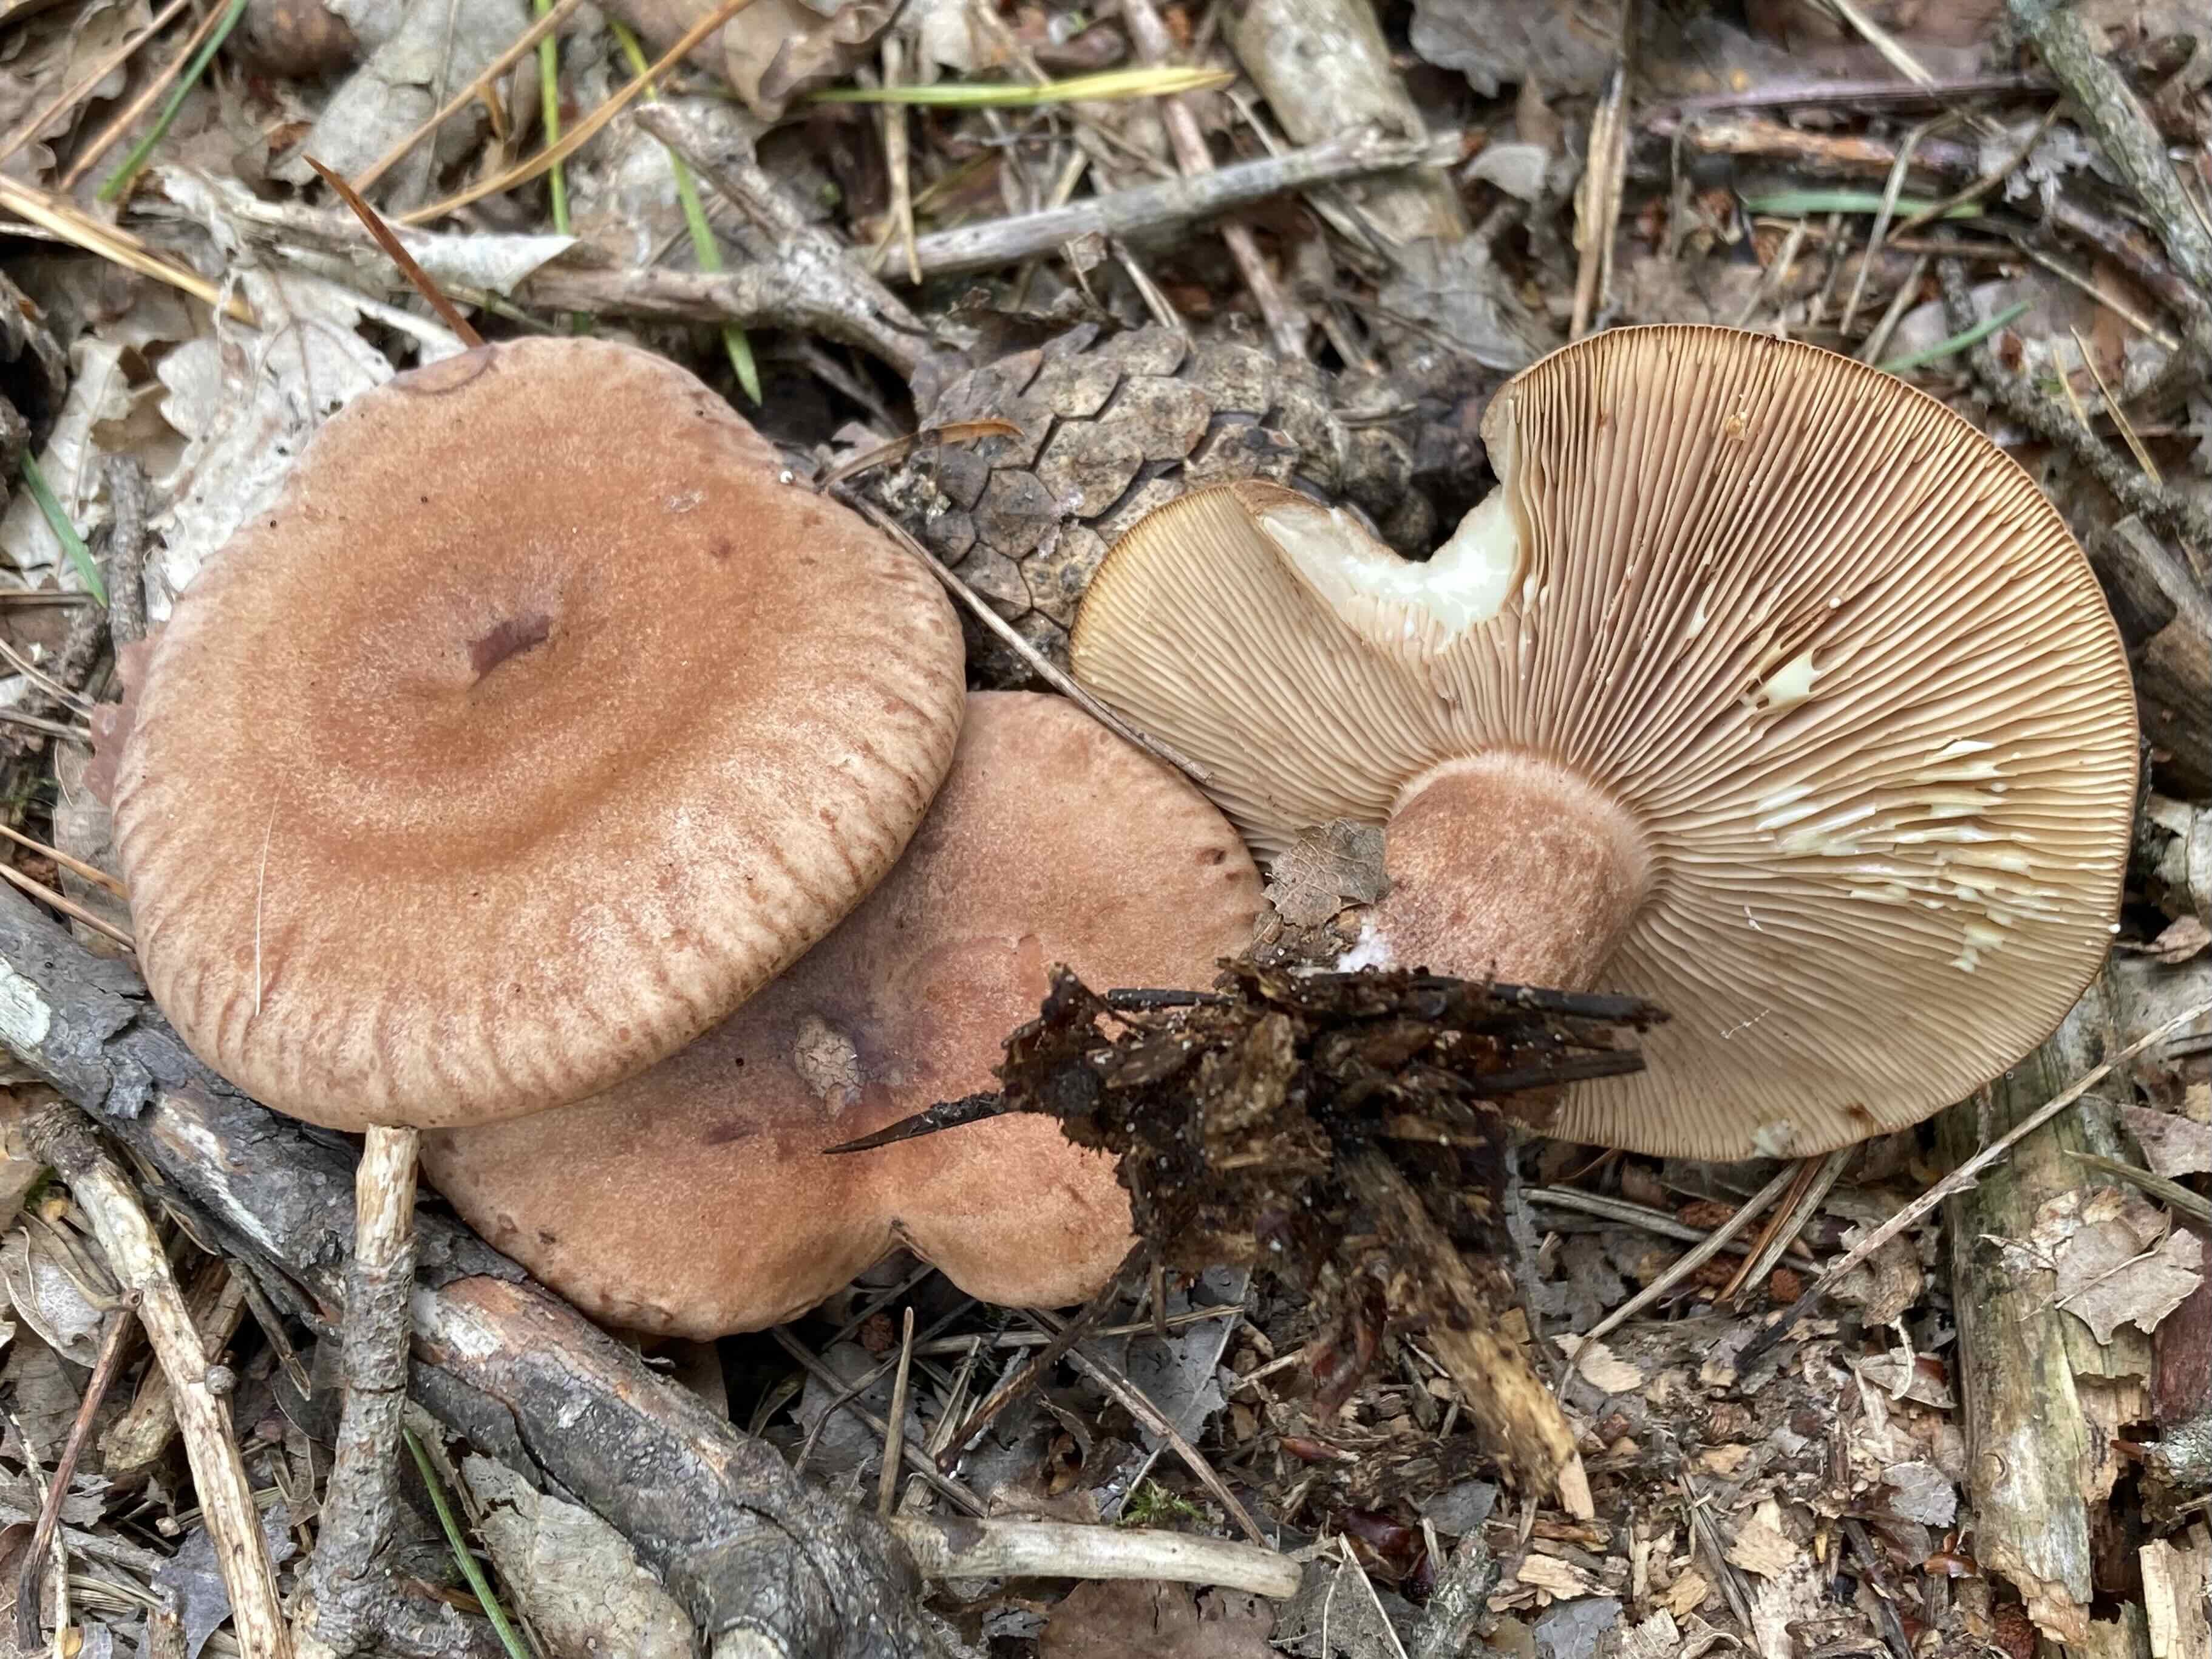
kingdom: Fungi
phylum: Basidiomycota
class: Agaricomycetes
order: Russulales
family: Russulaceae
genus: Lactarius
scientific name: Lactarius quietus
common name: ege-mælkehat
